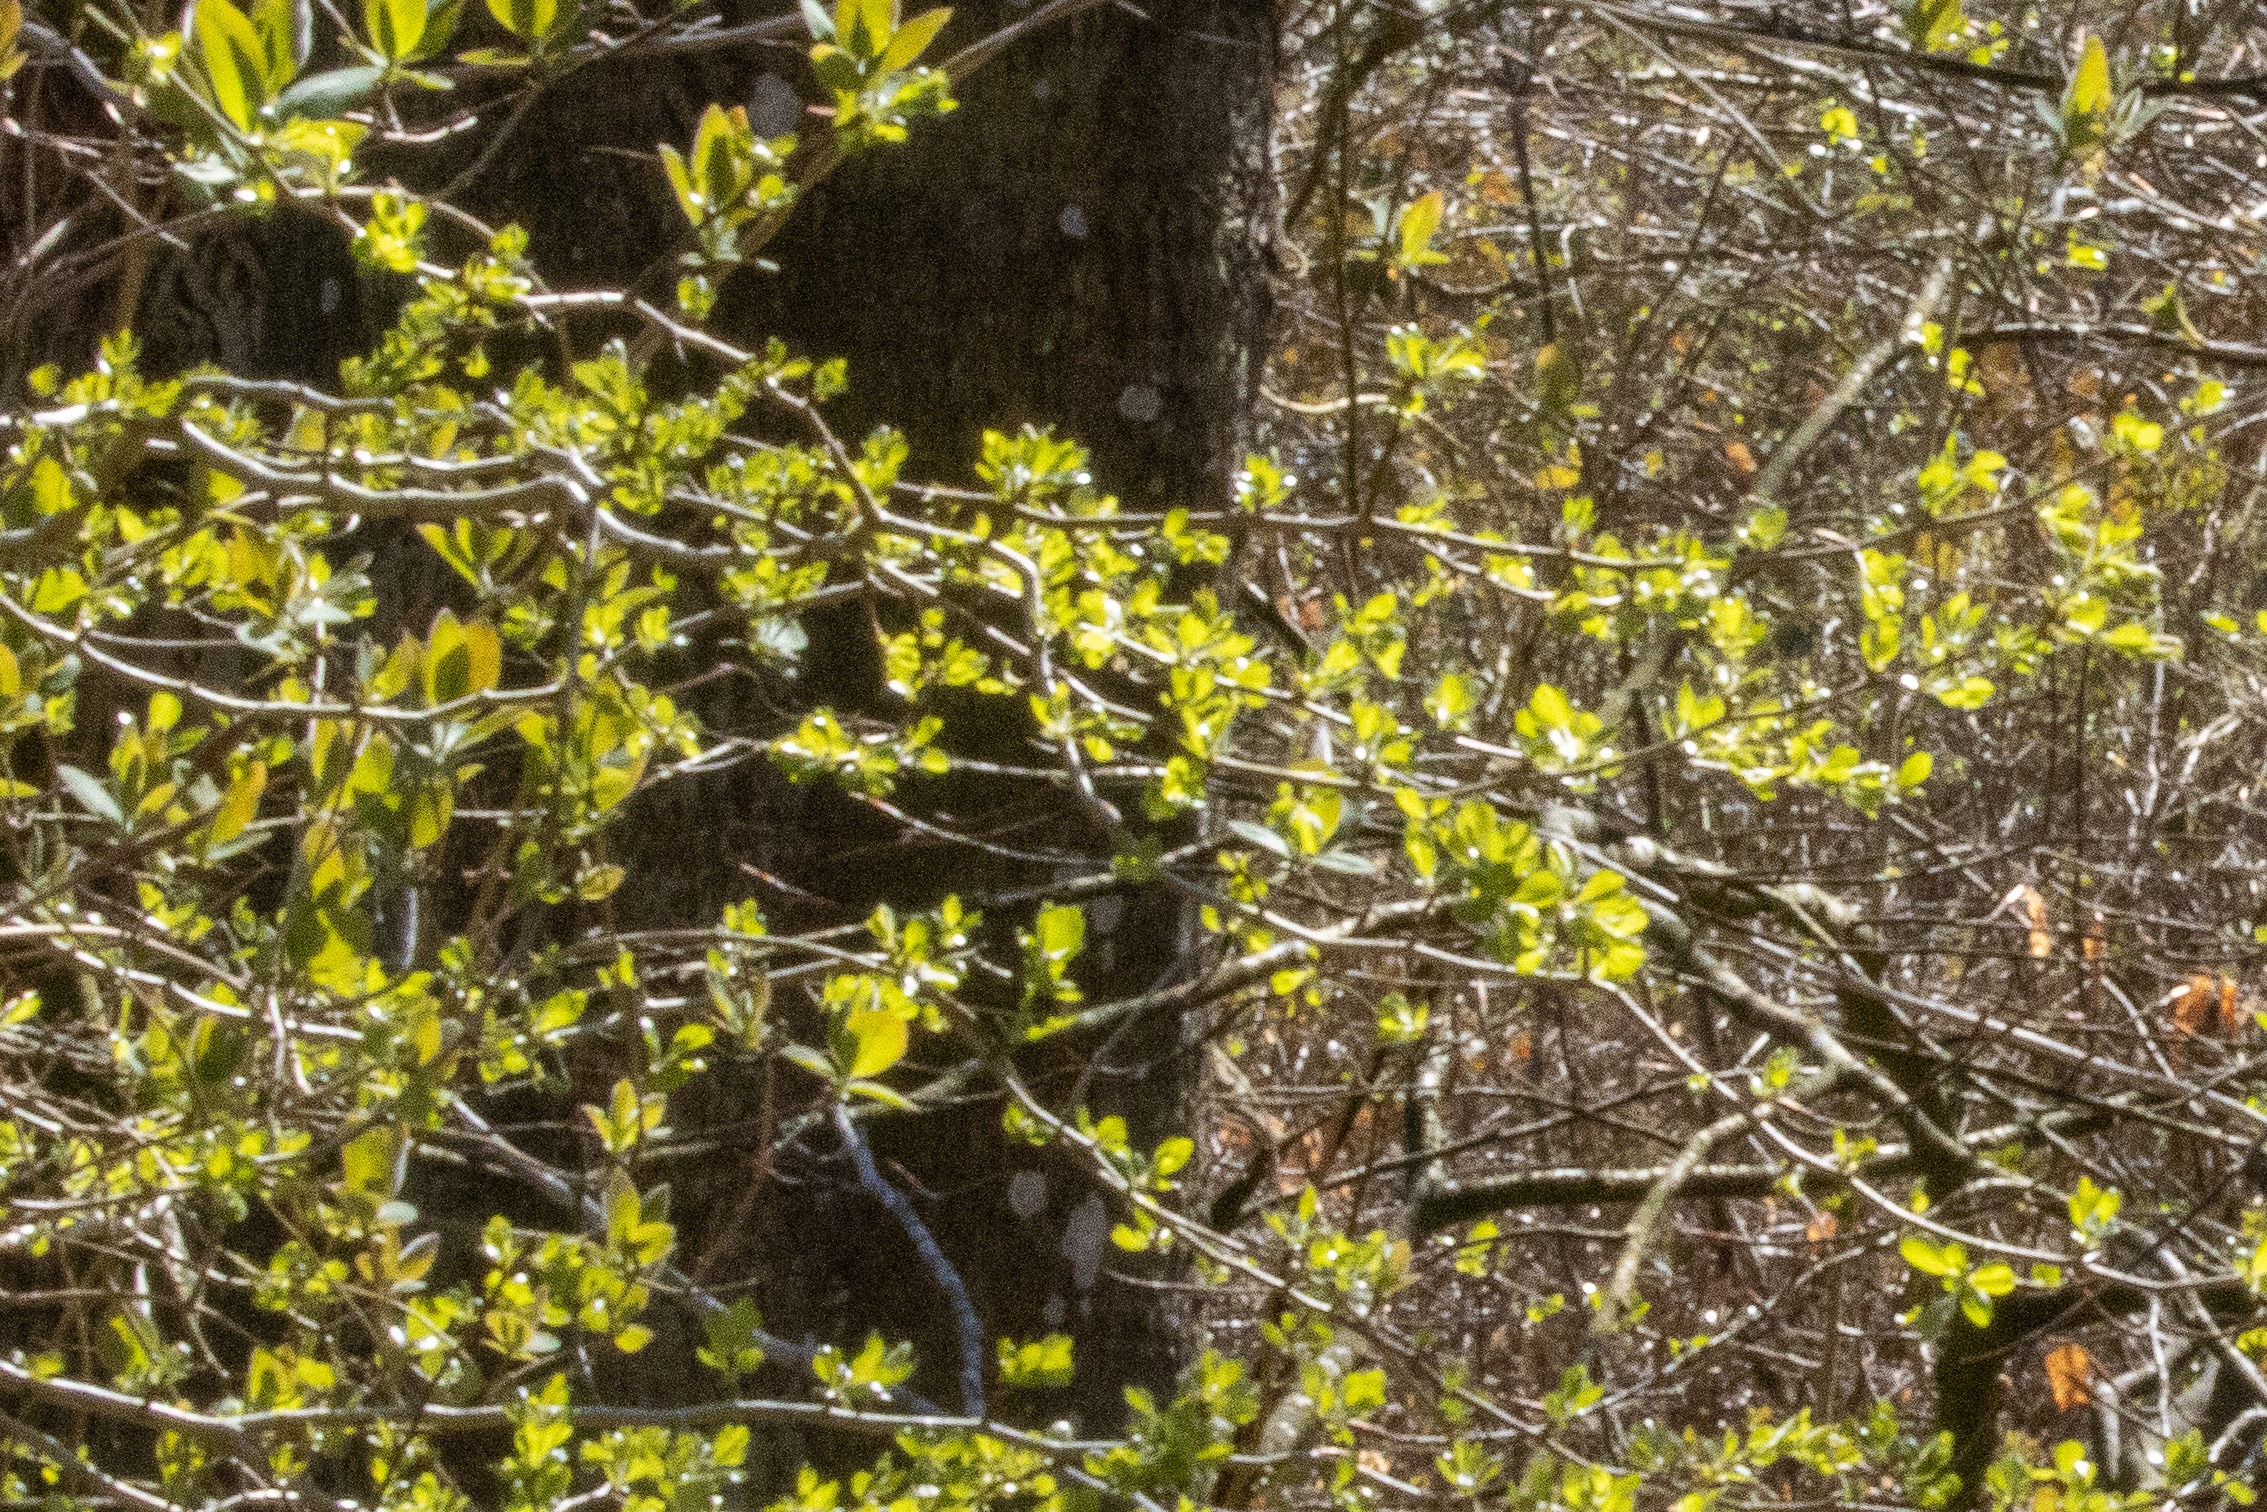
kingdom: Plantae
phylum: Tracheophyta
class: Magnoliopsida
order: Dipsacales
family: Caprifoliaceae
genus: Lonicera
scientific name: Lonicera periclymenum
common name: Almindelig gedeblad
